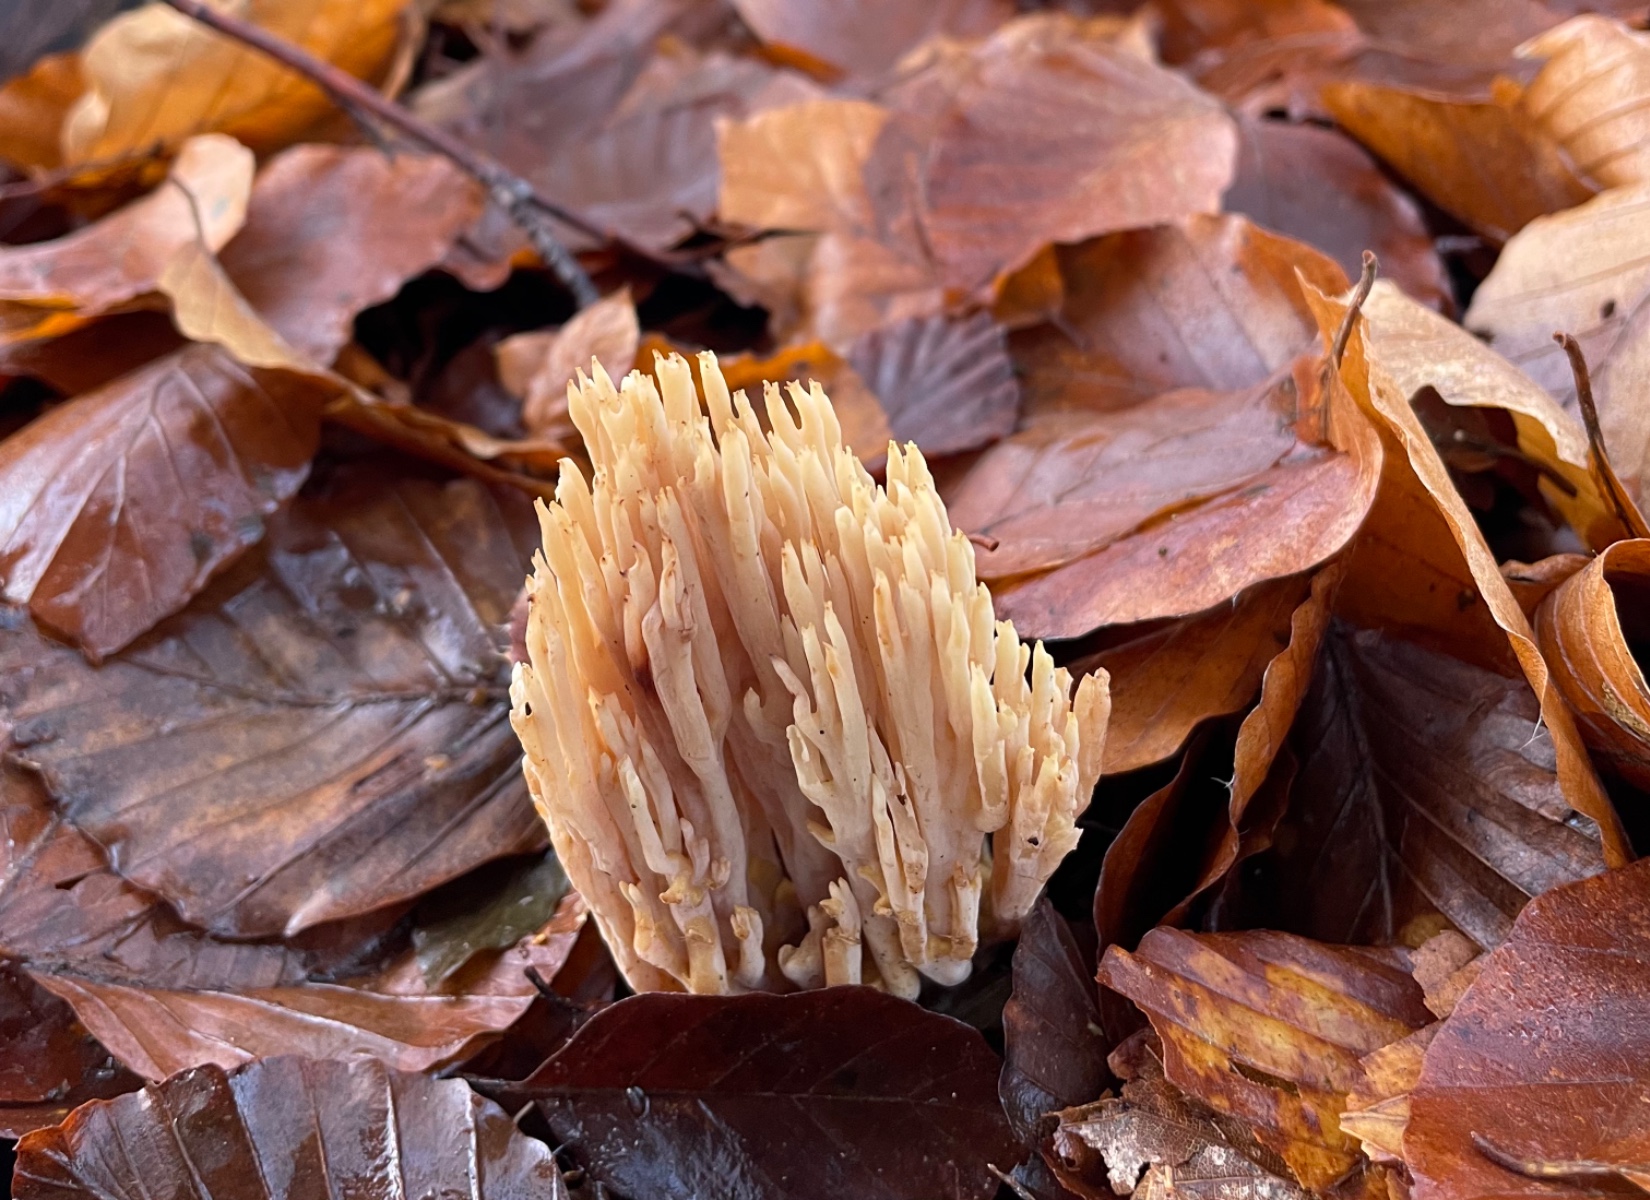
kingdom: Fungi
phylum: Basidiomycota
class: Agaricomycetes
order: Gomphales
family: Gomphaceae
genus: Ramaria
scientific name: Ramaria stricta
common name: rank koralsvamp
